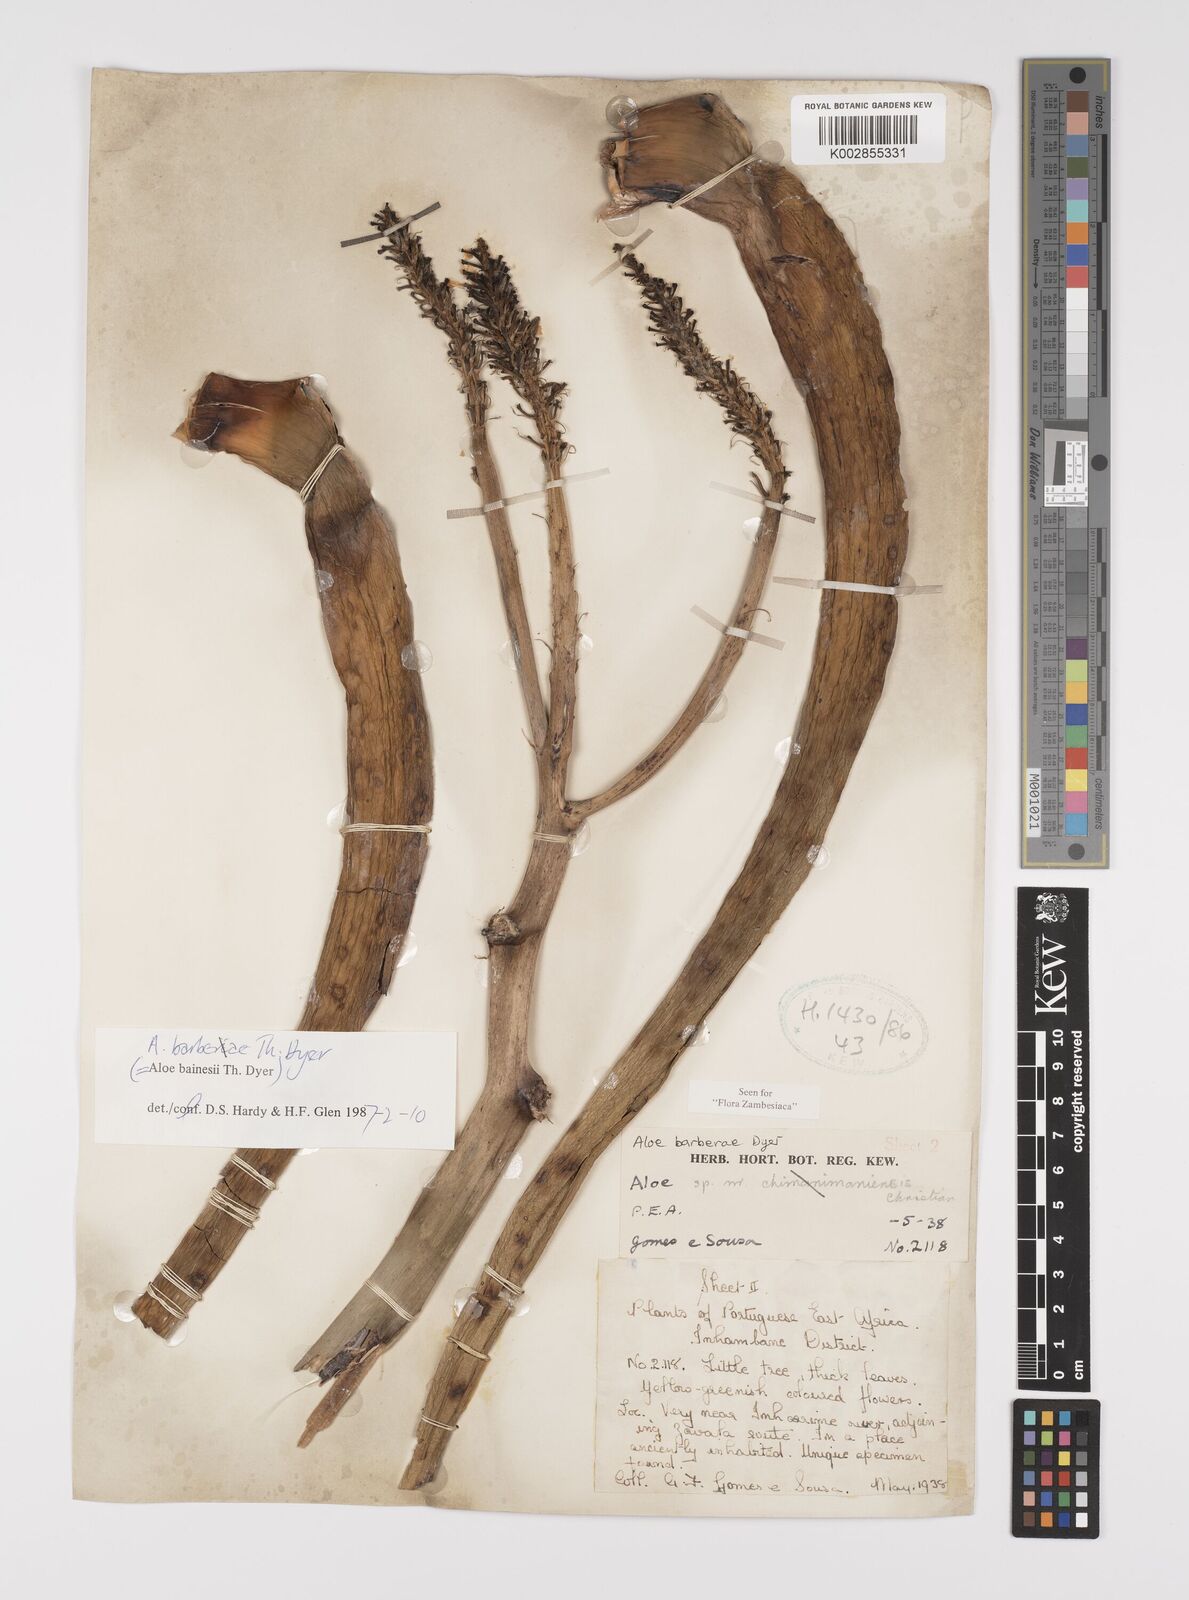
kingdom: Plantae
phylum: Tracheophyta
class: Liliopsida
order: Asparagales
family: Asphodelaceae
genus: Aloidendron
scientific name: Aloidendron barberae
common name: Tree aloe
